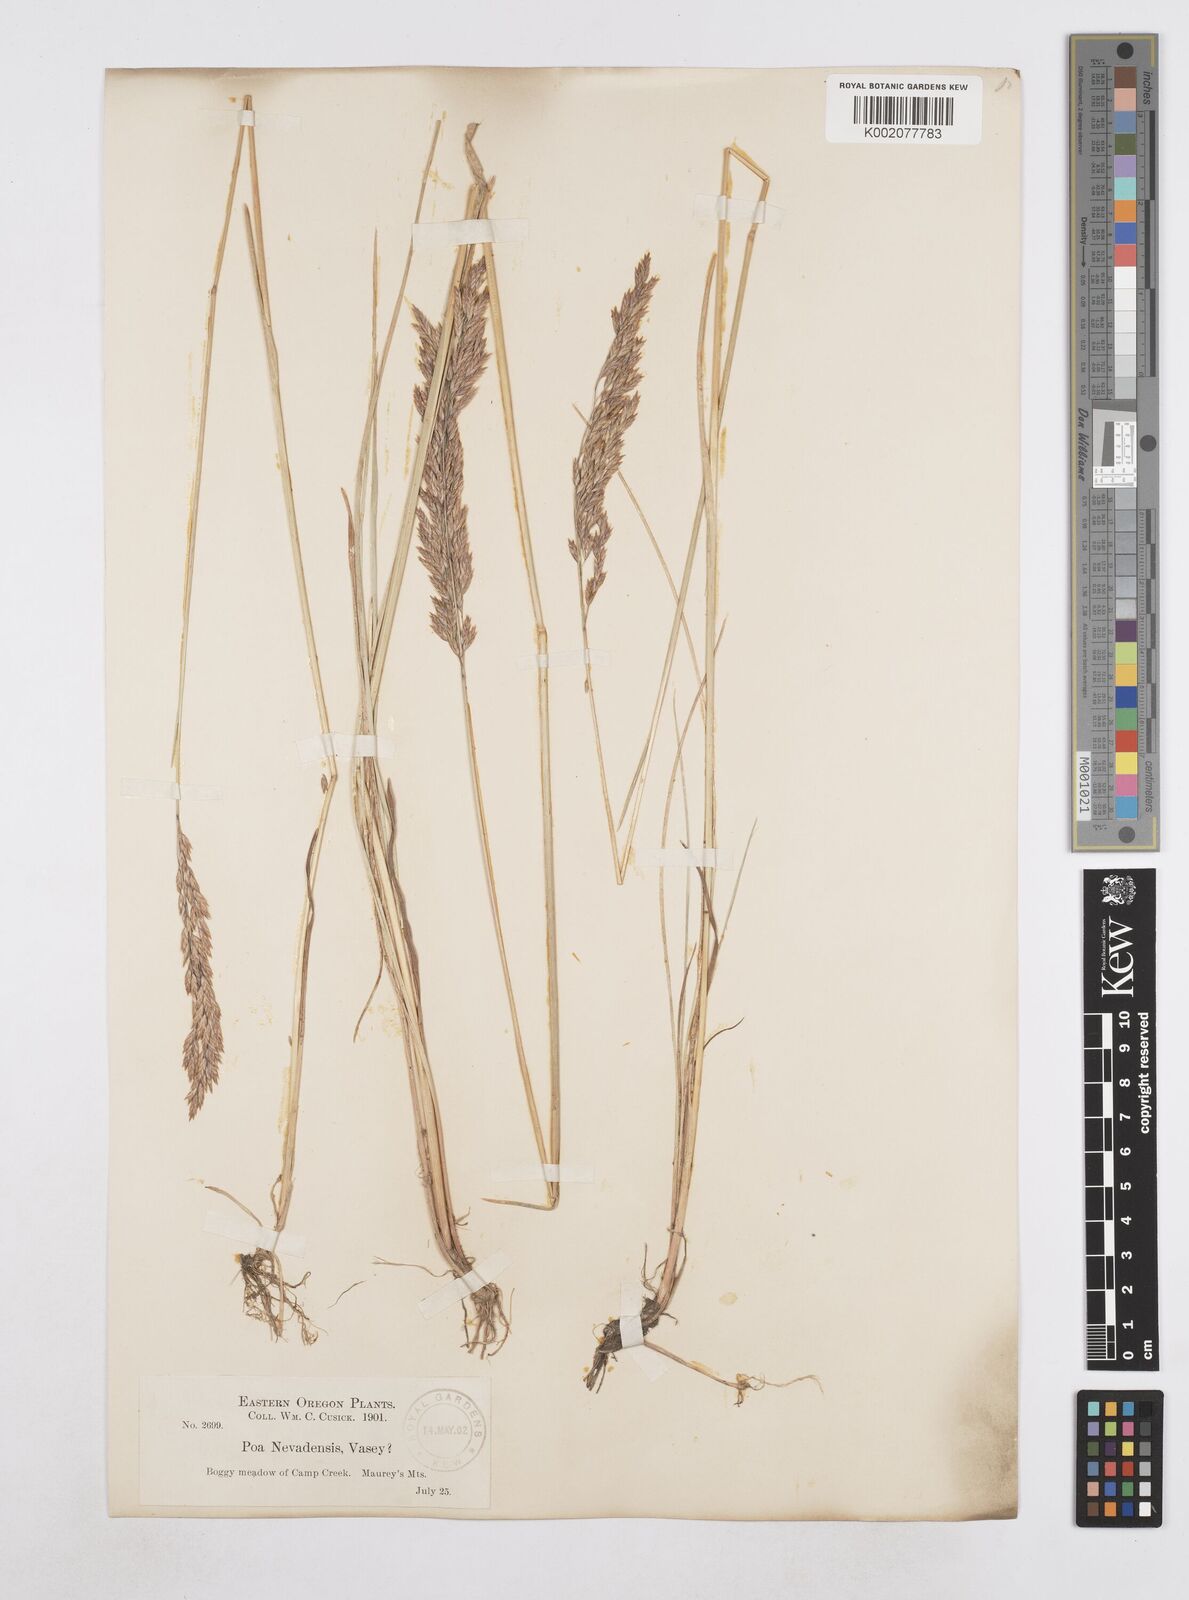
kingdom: Plantae
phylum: Tracheophyta
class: Liliopsida
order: Poales
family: Poaceae
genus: Poa
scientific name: Poa secunda
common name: Sandberg bluegrass
